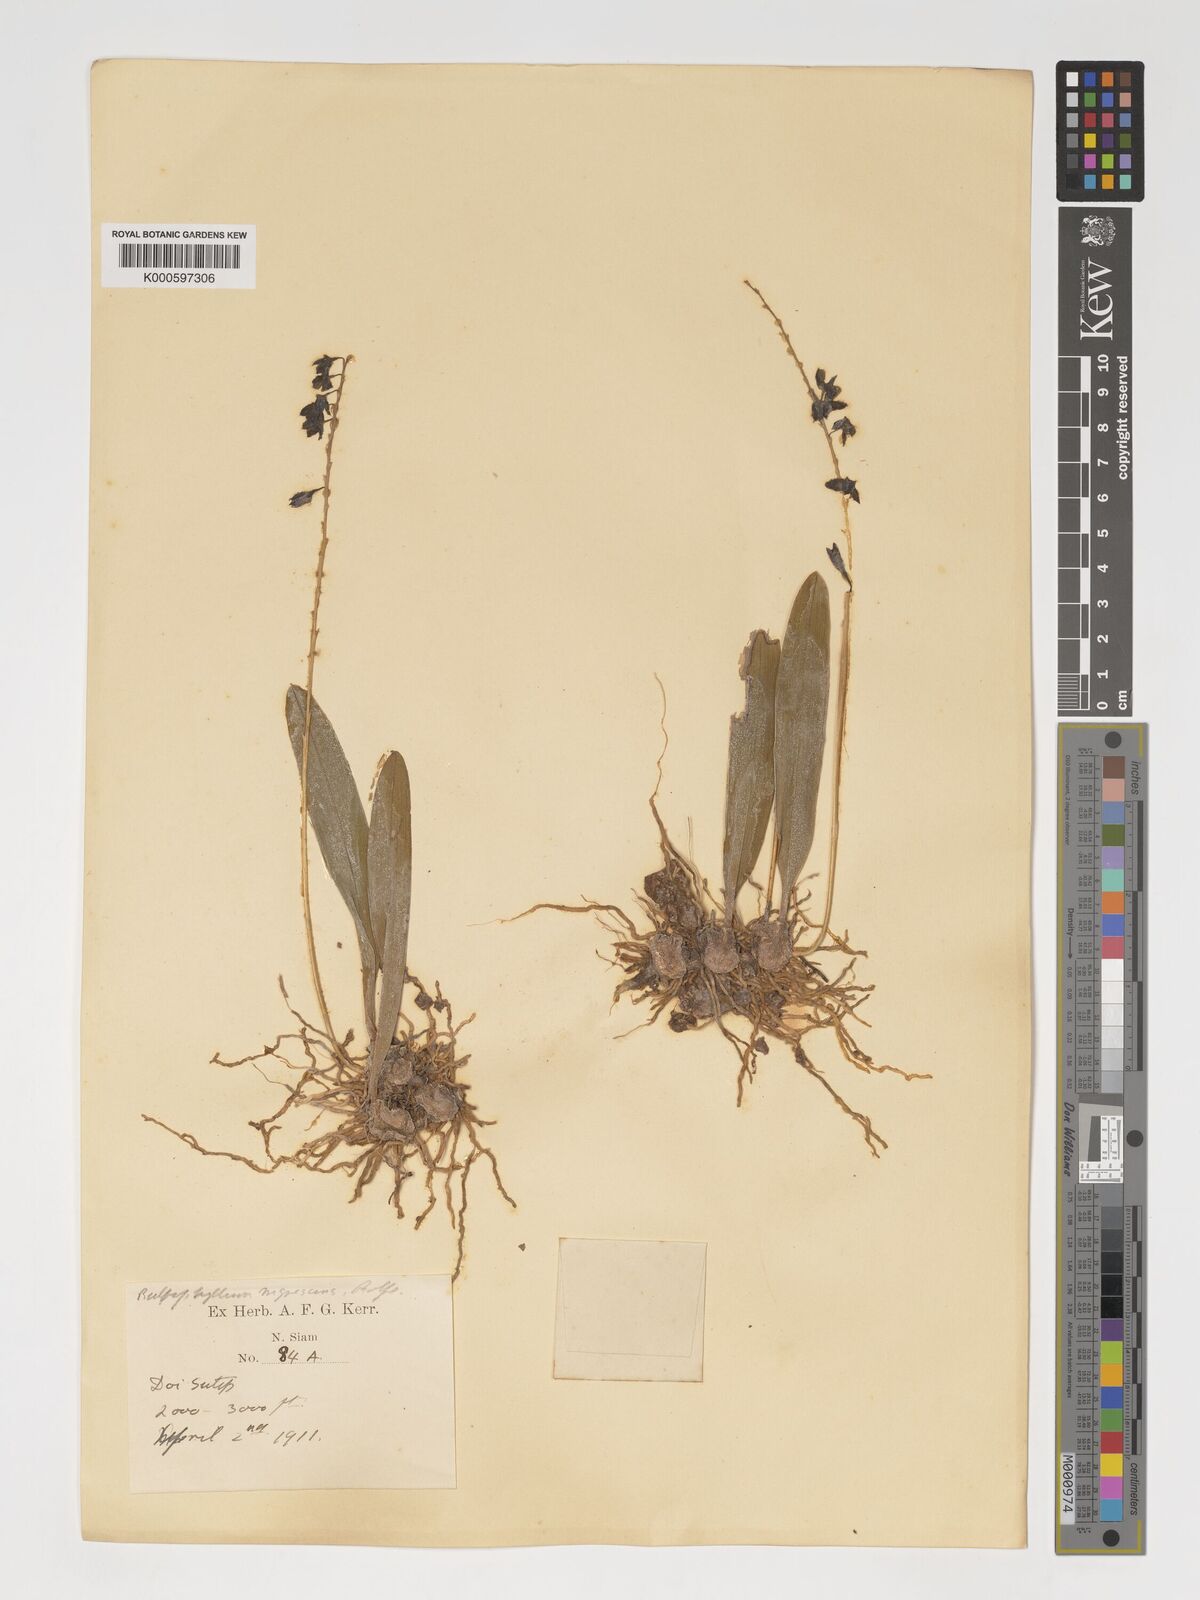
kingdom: Plantae
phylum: Tracheophyta
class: Liliopsida
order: Asparagales
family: Orchidaceae
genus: Bulbophyllum
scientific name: Bulbophyllum nigrescens
